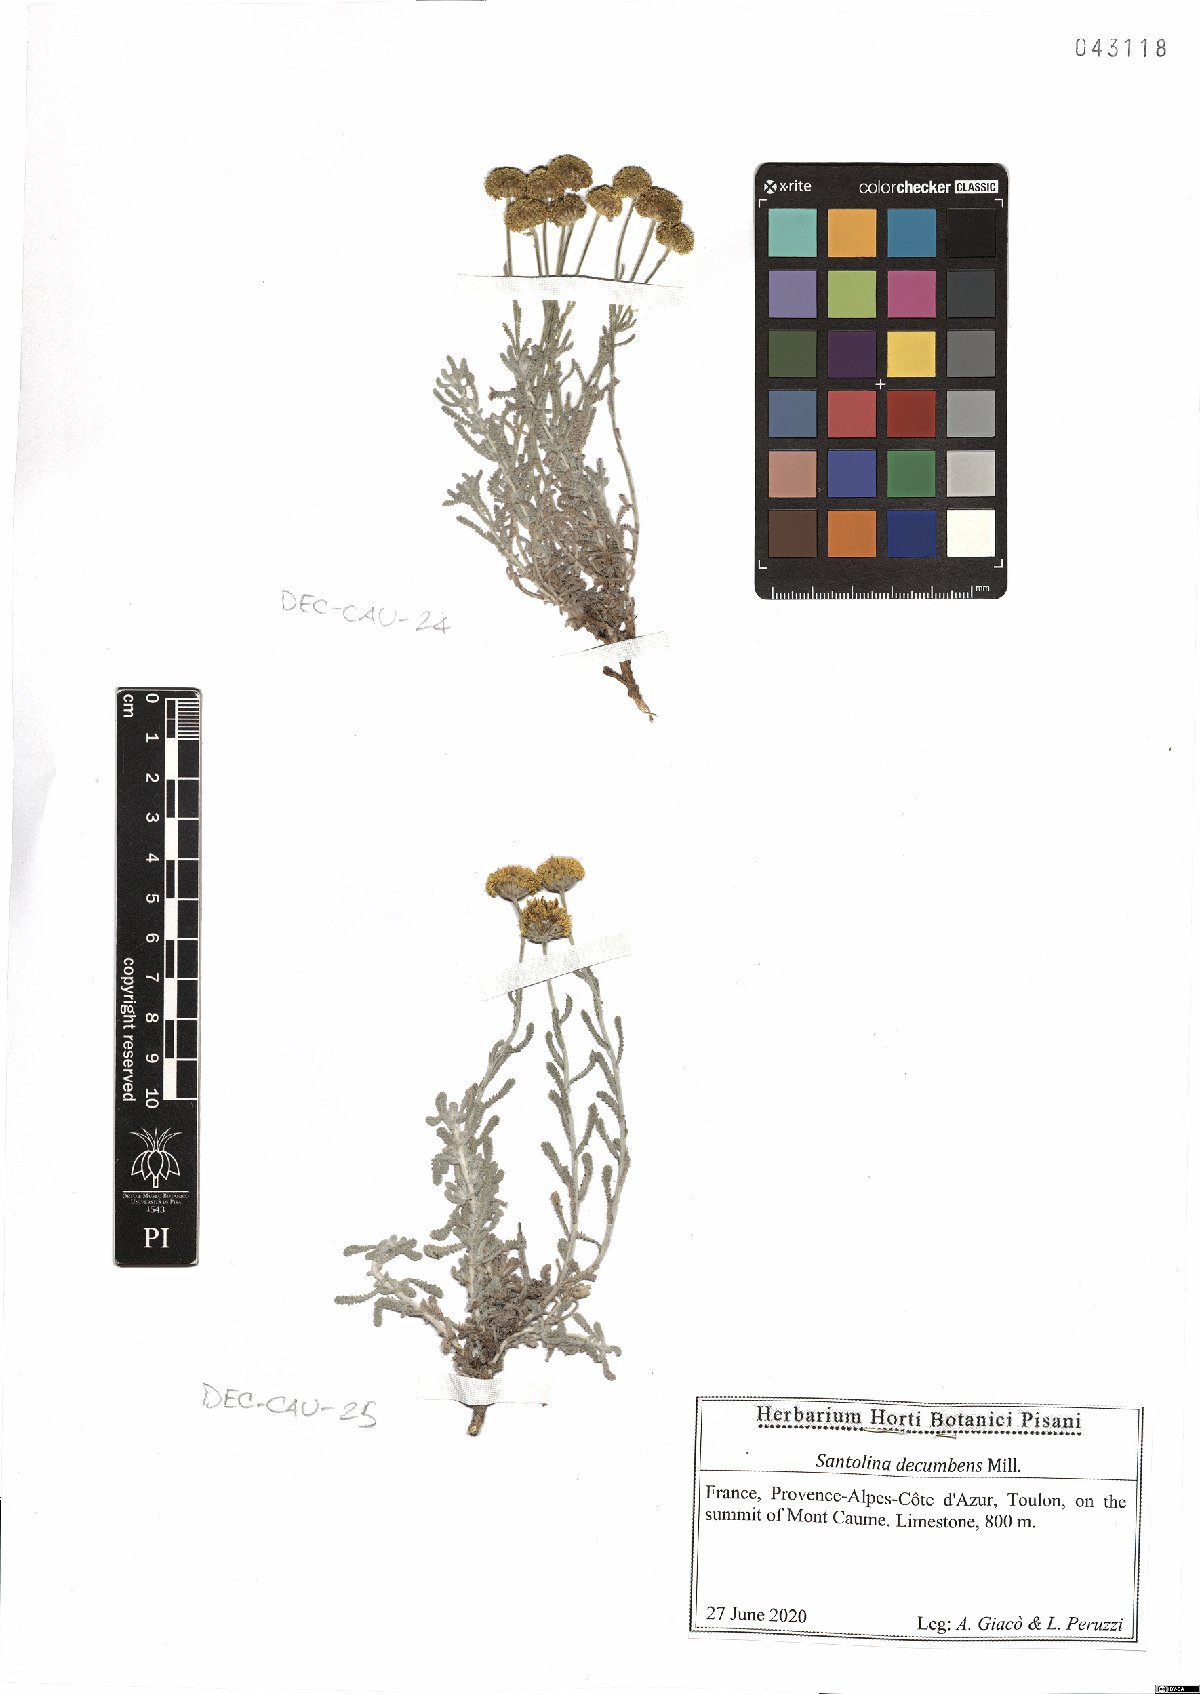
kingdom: Plantae
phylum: Tracheophyta
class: Magnoliopsida
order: Asterales
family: Asteraceae
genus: Santolina
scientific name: Santolina decumbens
